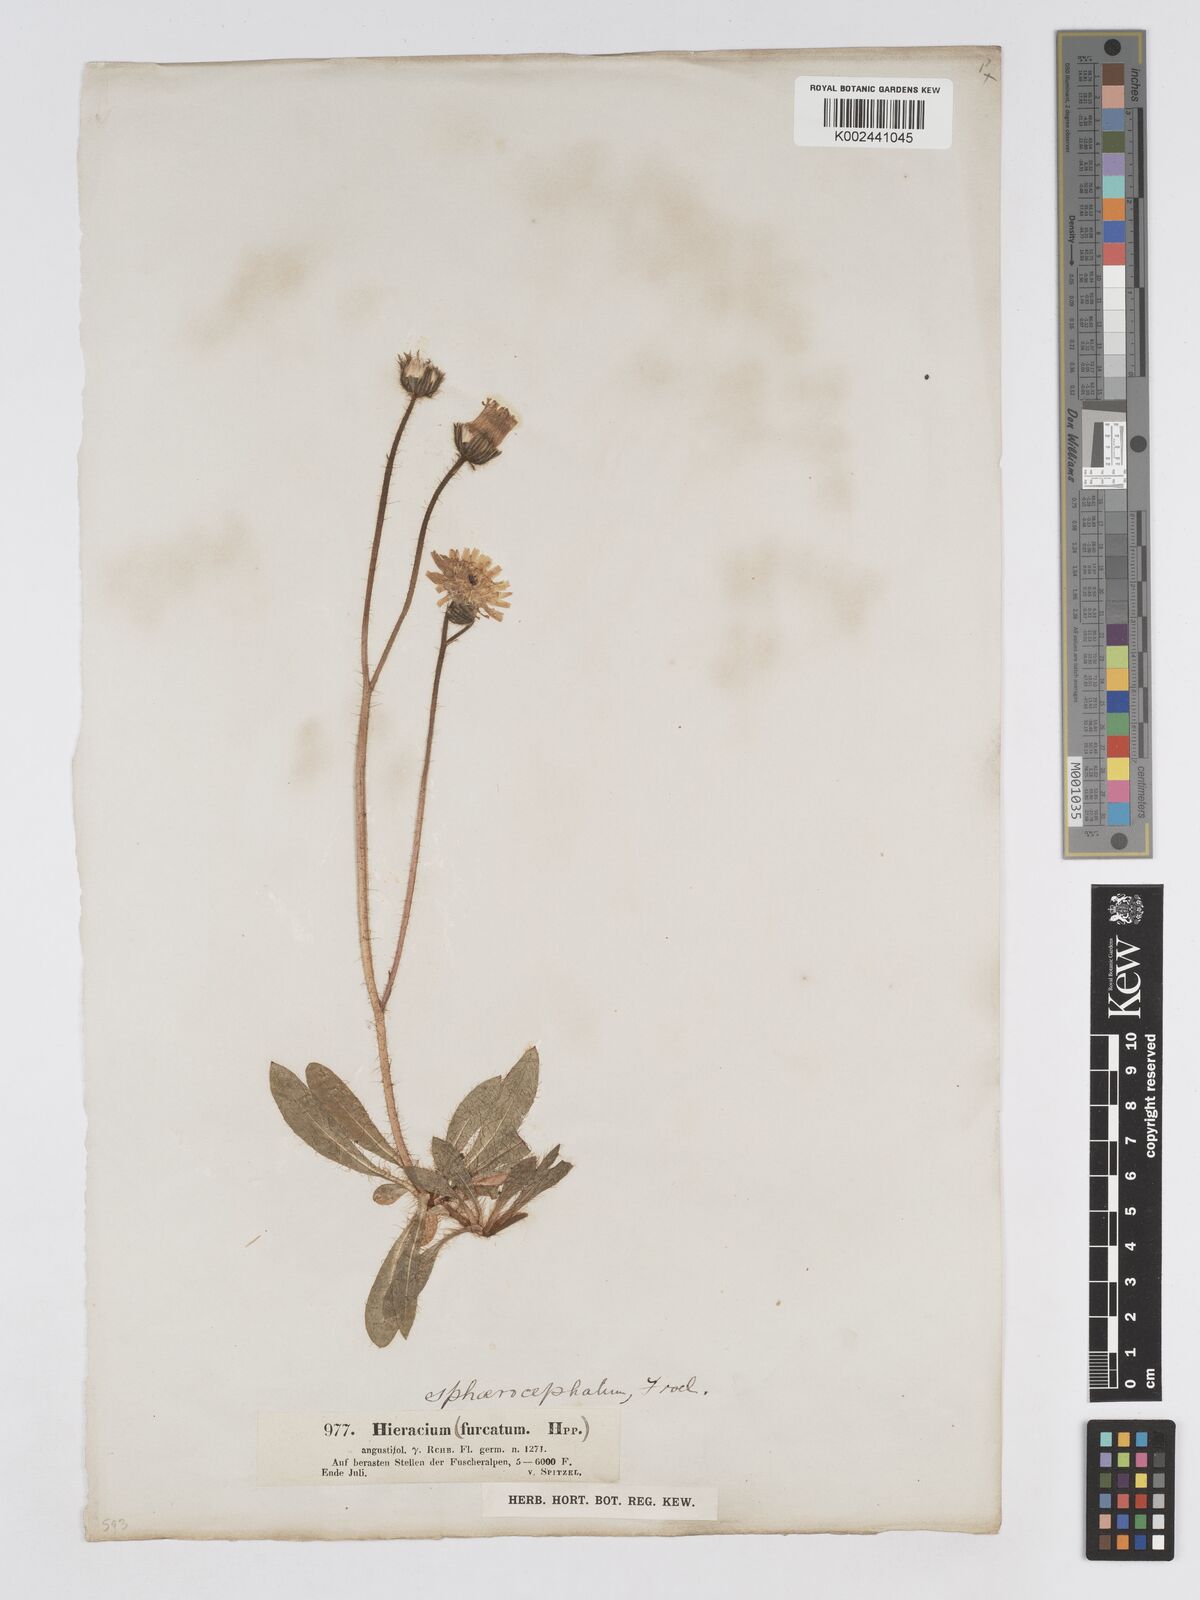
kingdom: Plantae
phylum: Tracheophyta
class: Magnoliopsida
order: Asterales
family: Asteraceae
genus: Pilosella
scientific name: Pilosella sphaerocephala
